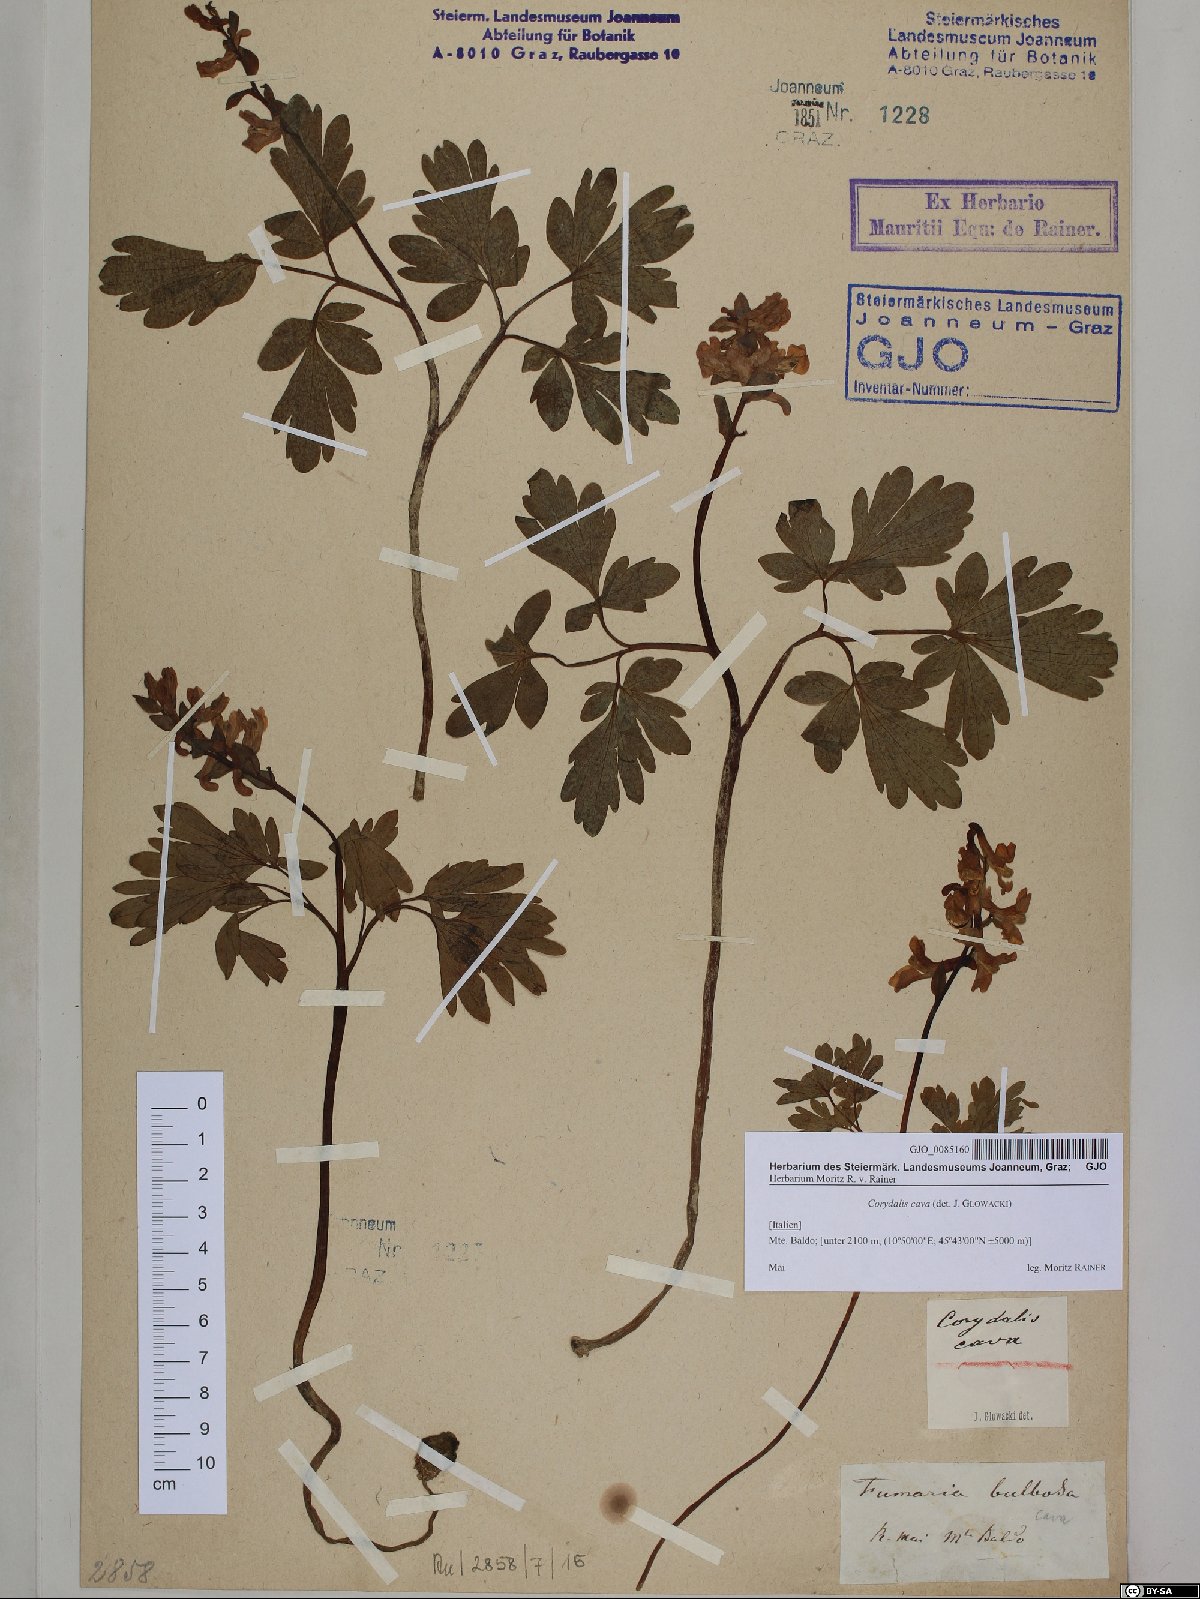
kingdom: Plantae
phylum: Tracheophyta
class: Magnoliopsida
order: Ranunculales
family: Papaveraceae
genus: Corydalis
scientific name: Corydalis cava
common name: Hollowroot
